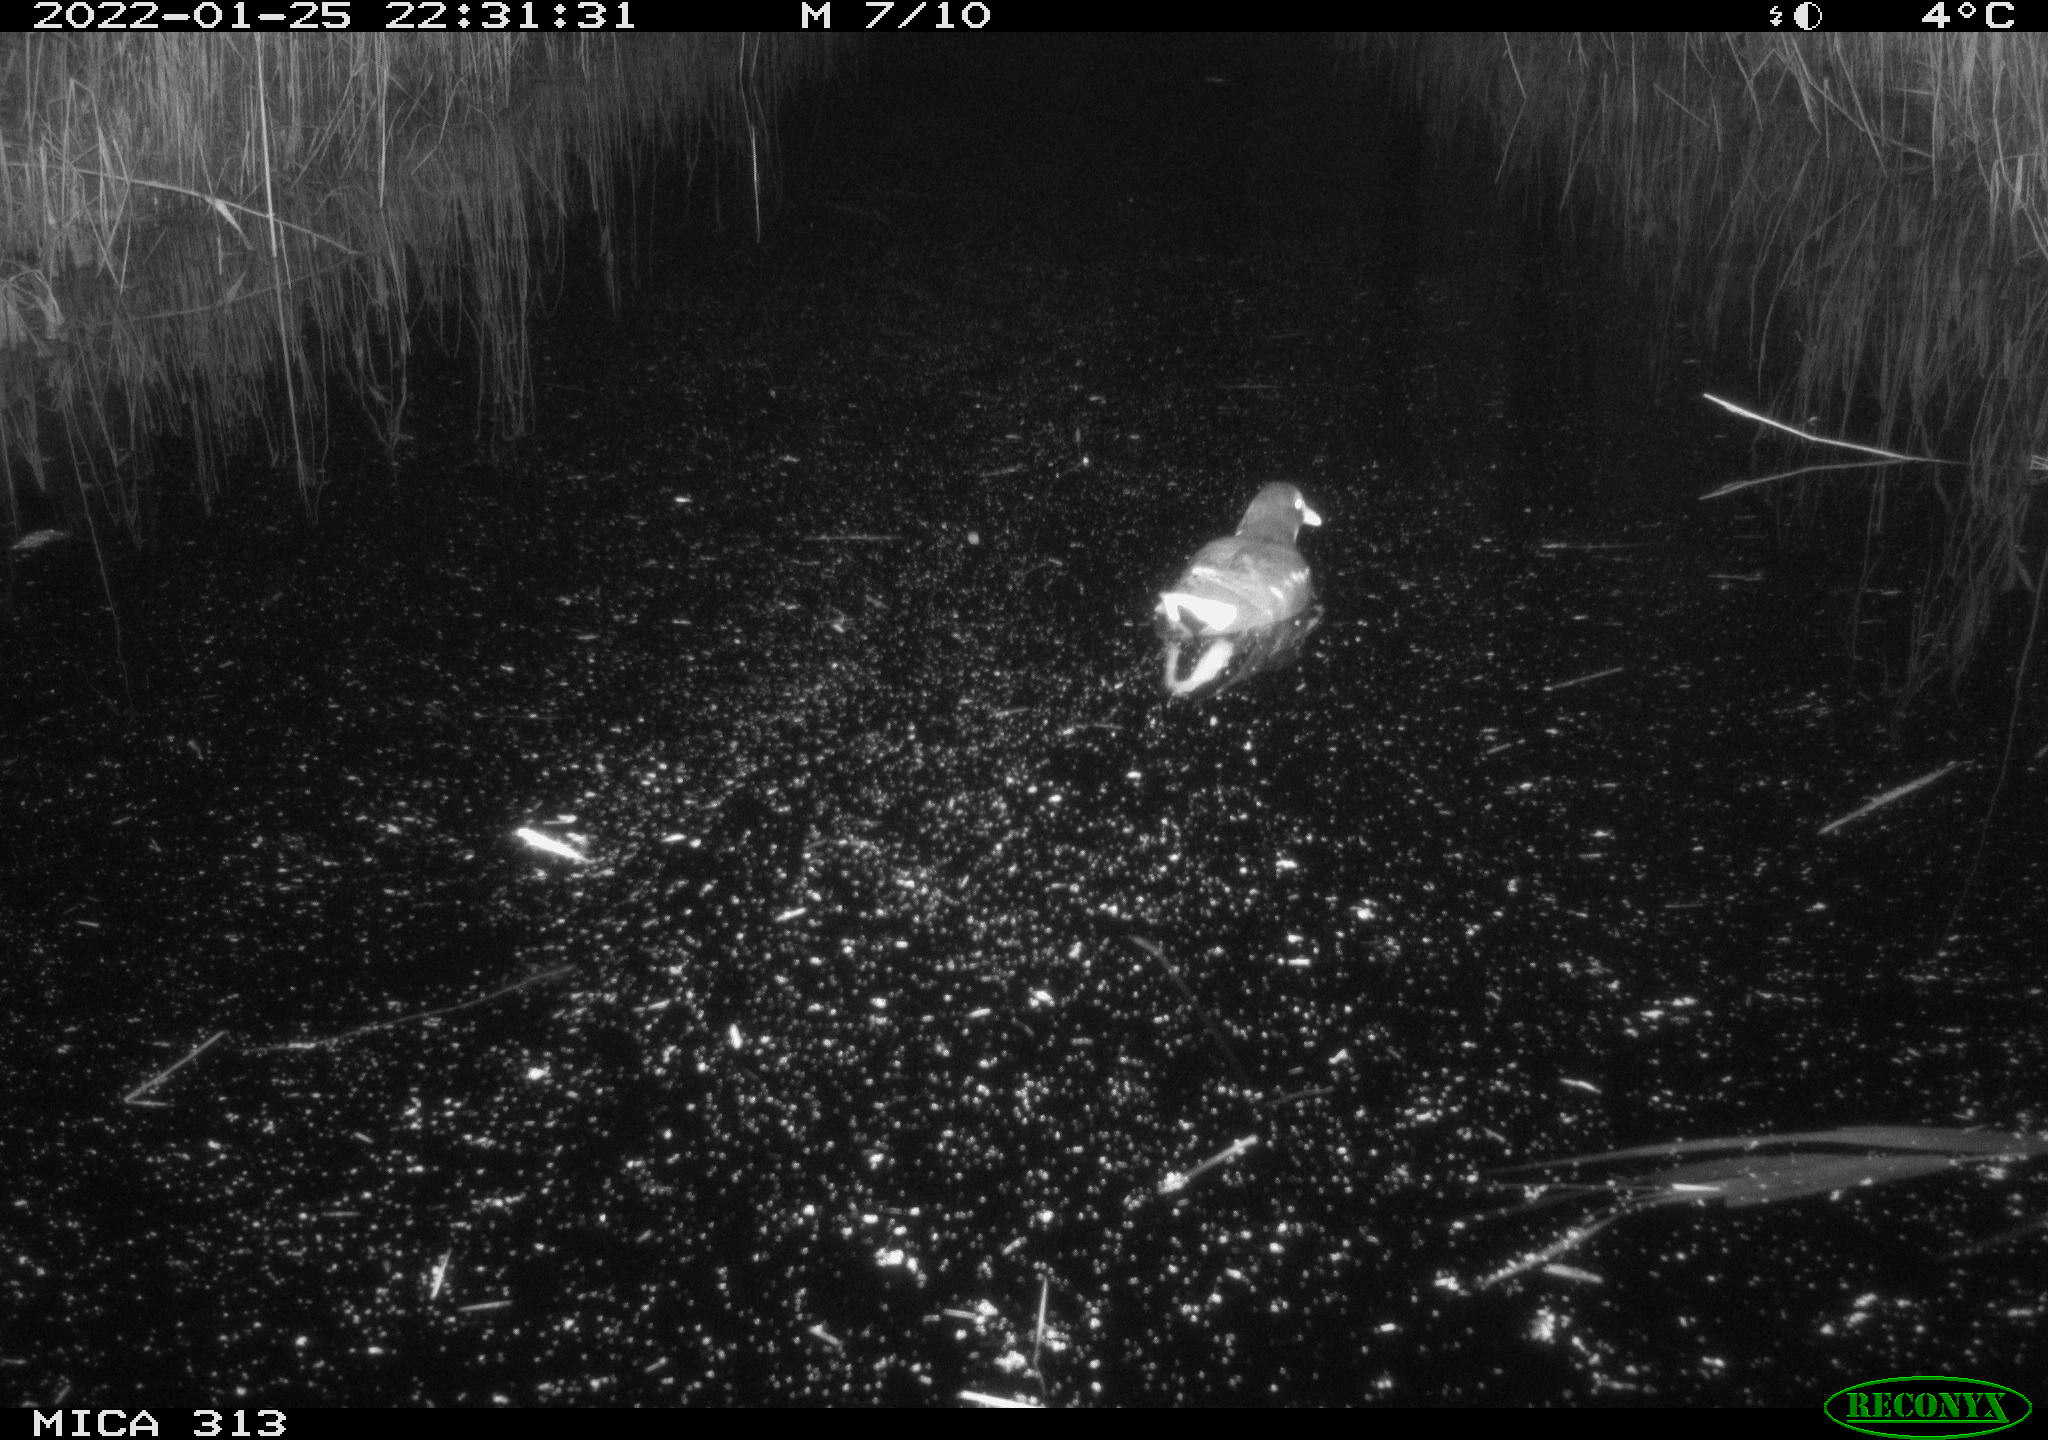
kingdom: Animalia
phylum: Chordata
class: Aves
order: Gruiformes
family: Rallidae
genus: Gallinula
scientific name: Gallinula chloropus
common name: Common moorhen
